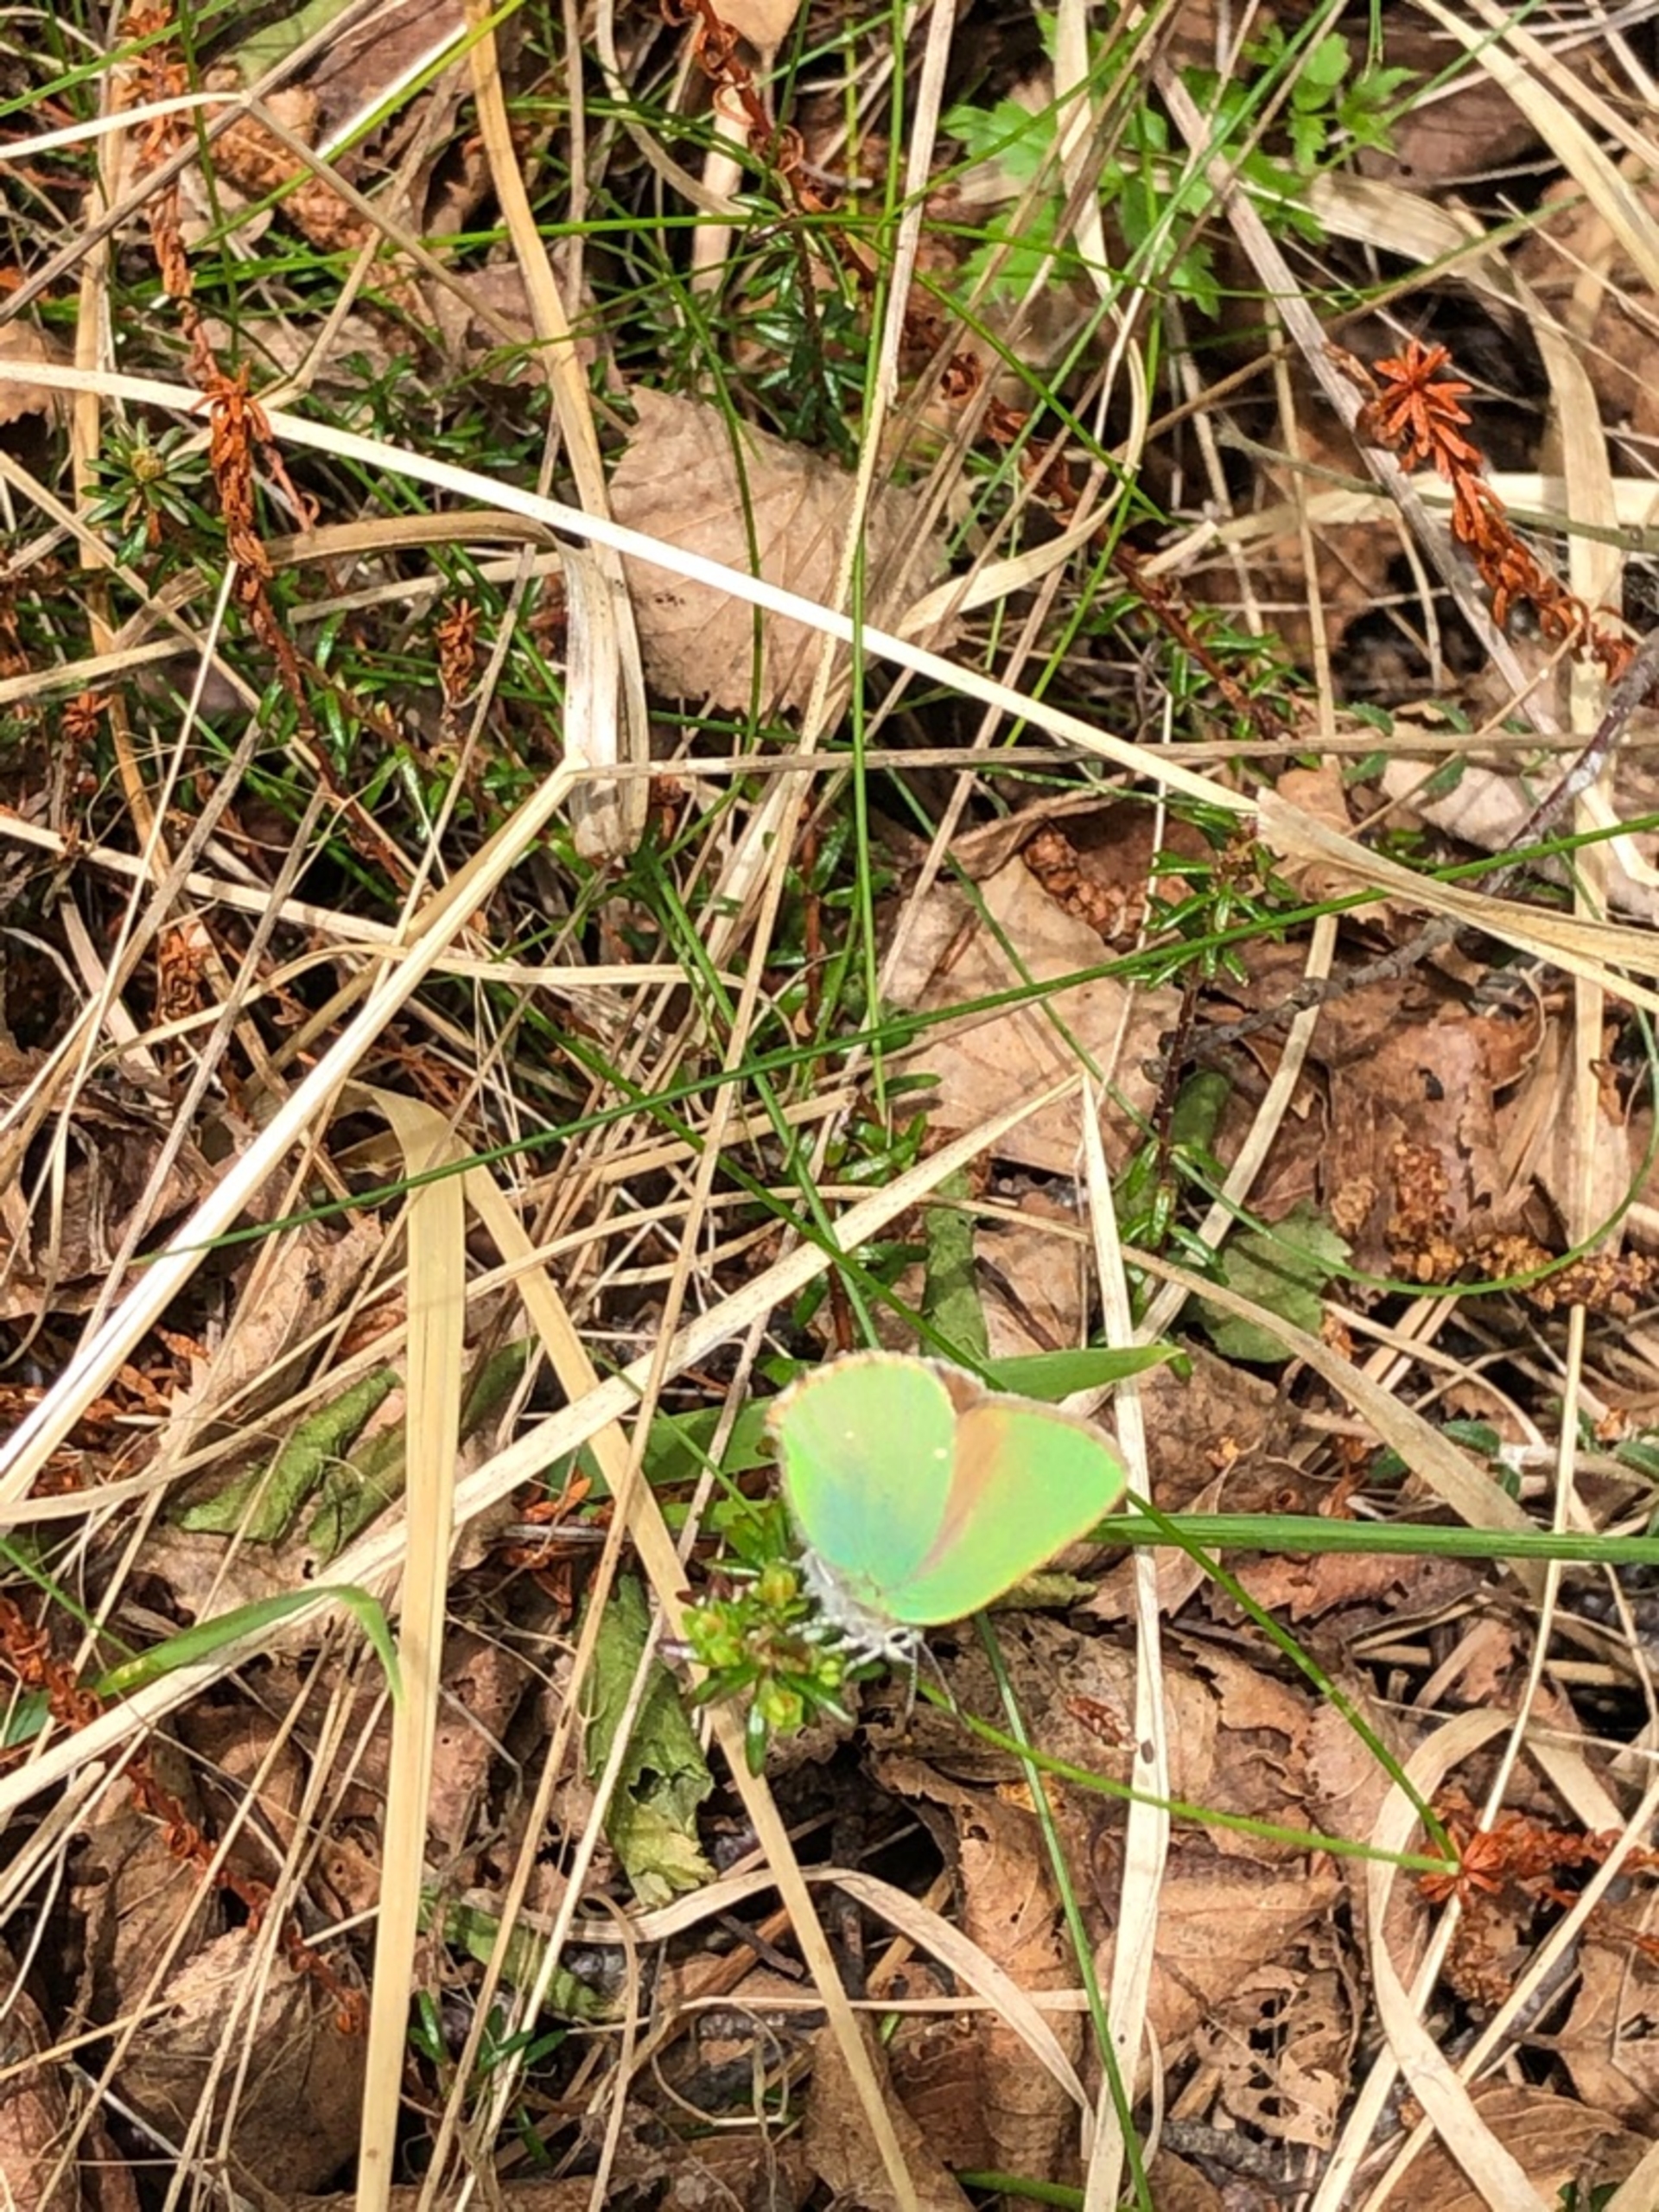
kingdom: Animalia
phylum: Arthropoda
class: Insecta
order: Lepidoptera
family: Lycaenidae
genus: Callophrys
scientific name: Callophrys rubi
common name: Grøn busksommerfugl
